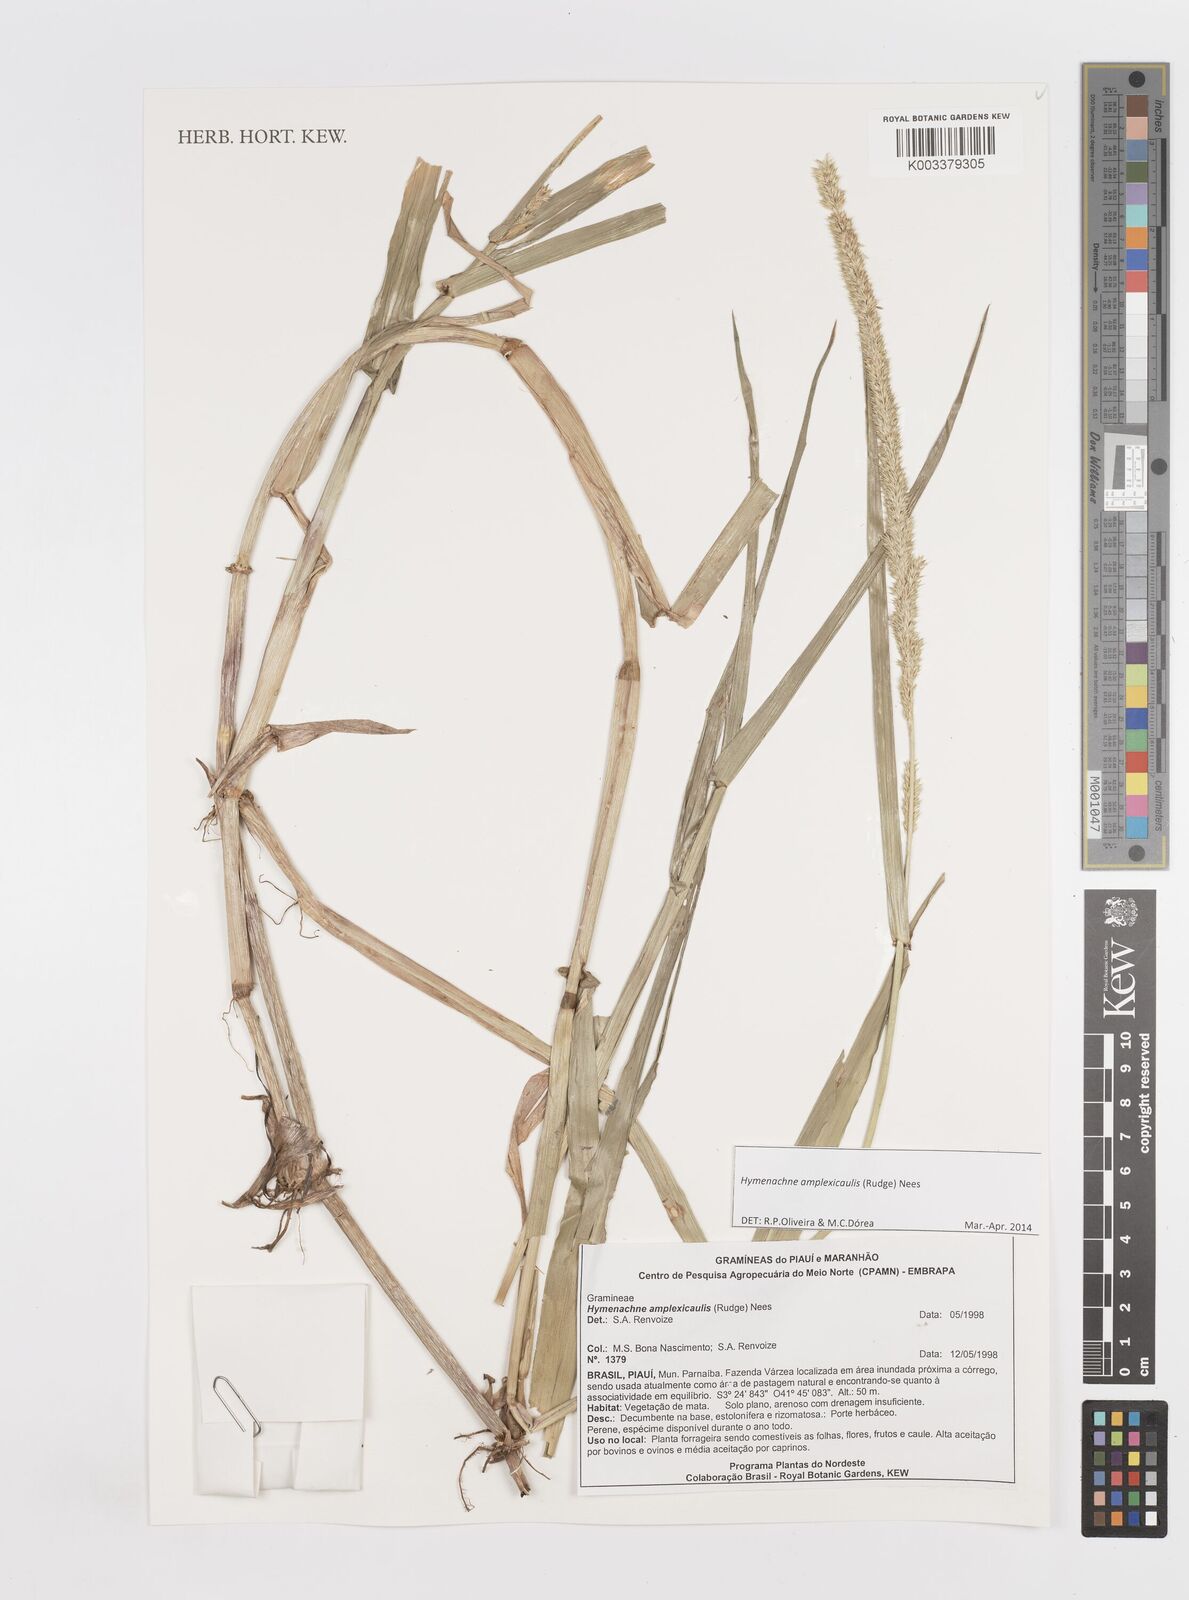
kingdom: Plantae
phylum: Tracheophyta
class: Liliopsida
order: Poales
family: Poaceae
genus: Hymenachne
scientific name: Hymenachne amplexicaulis
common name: Olive hymenachne
